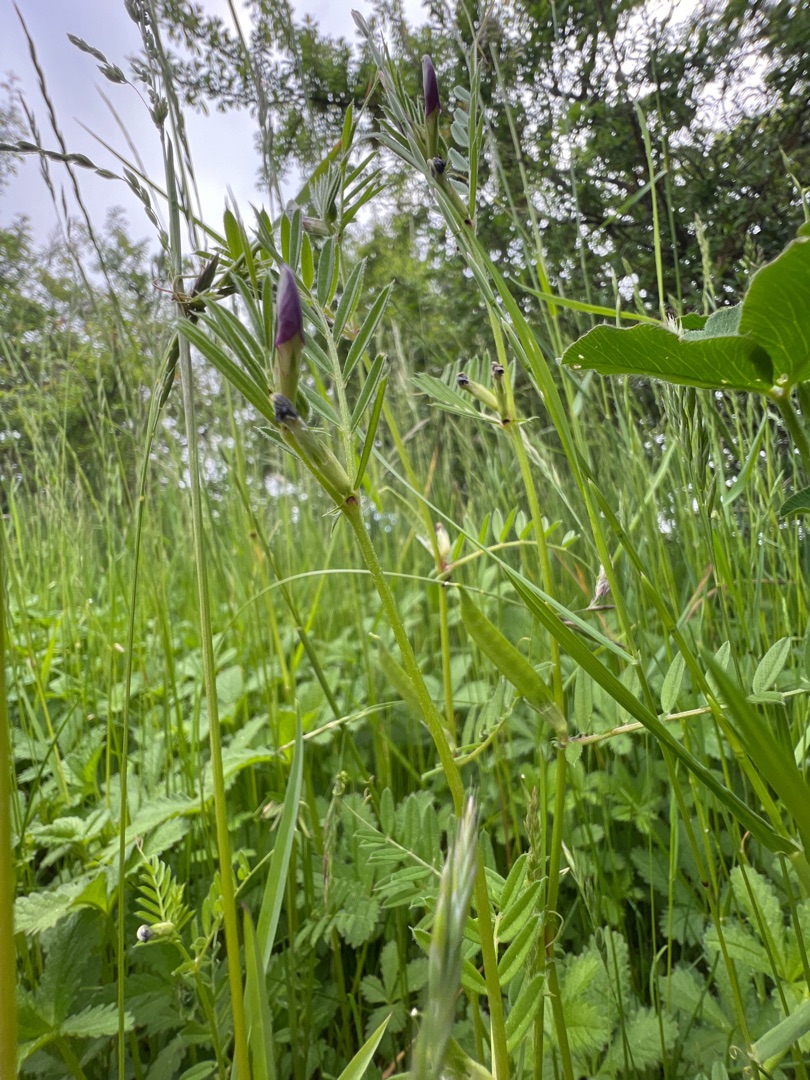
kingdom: Plantae
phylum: Tracheophyta
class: Magnoliopsida
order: Fabales
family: Fabaceae
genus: Vicia
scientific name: Vicia sativa
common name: Foder-vikke
